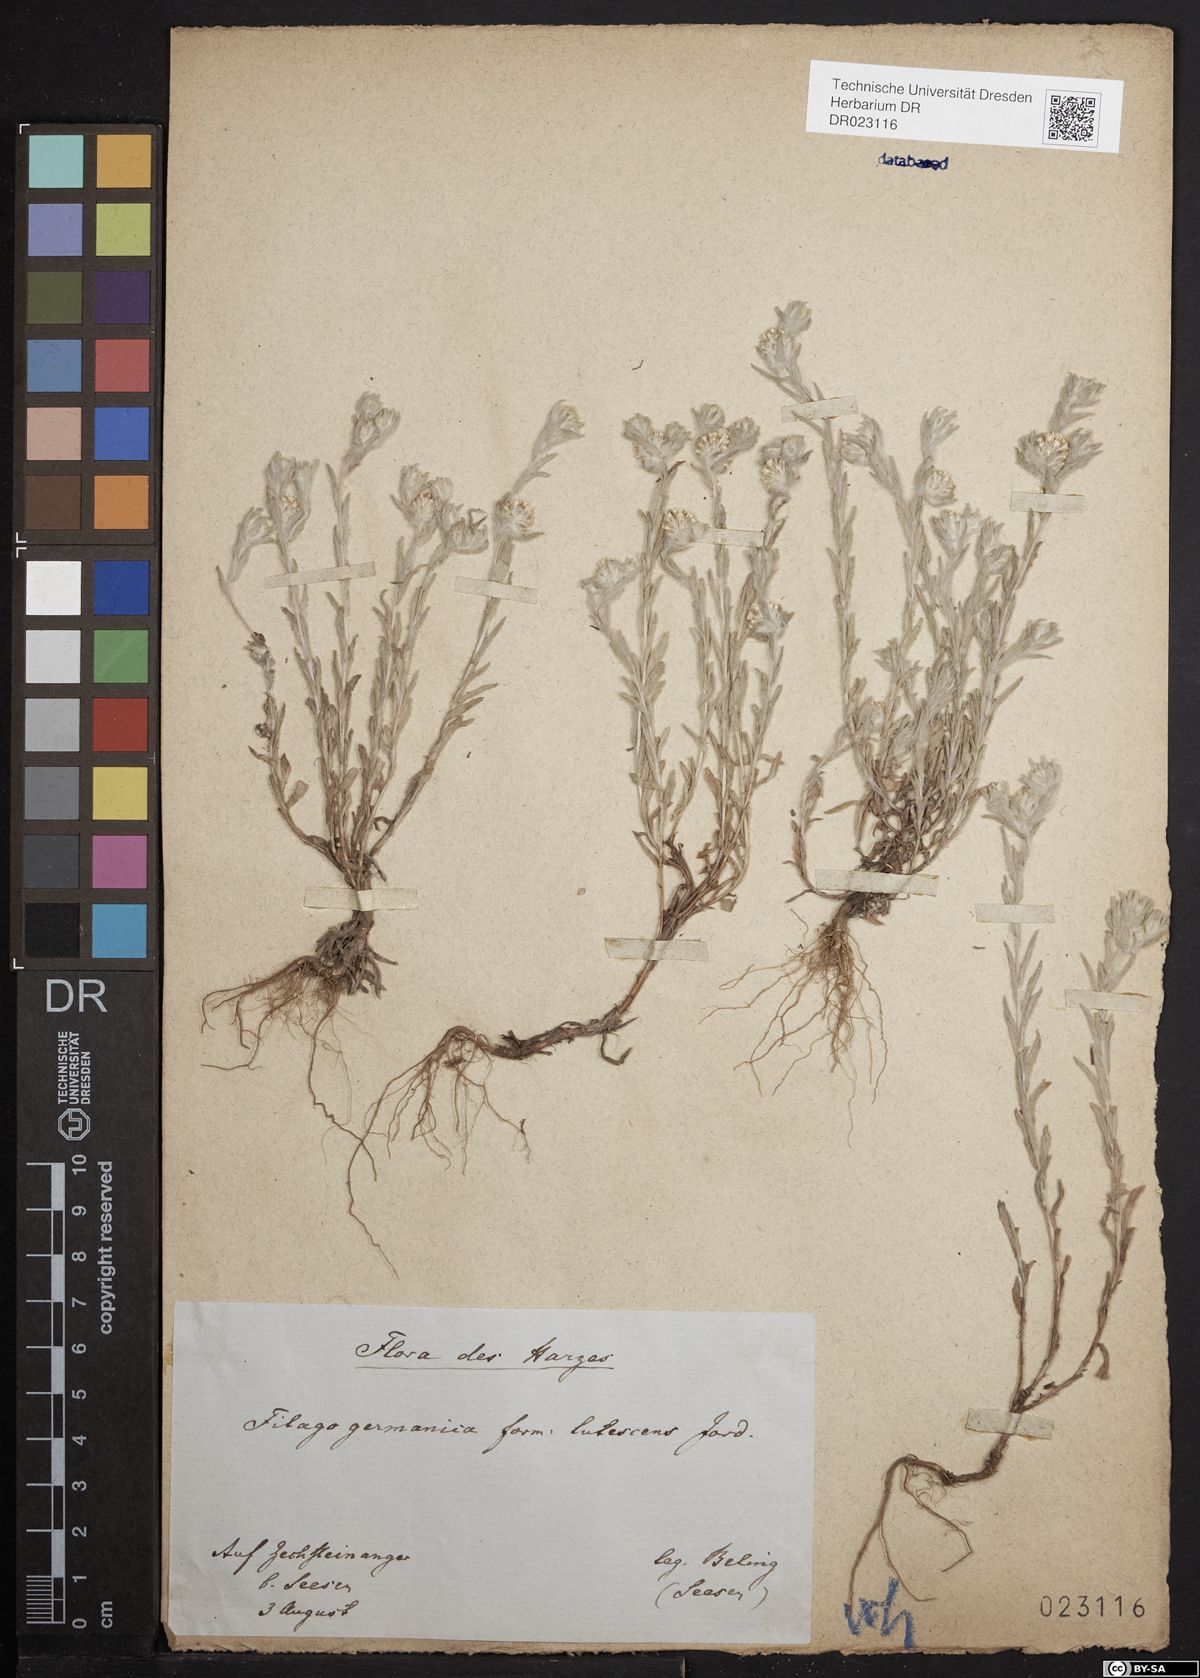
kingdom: Plantae
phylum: Tracheophyta
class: Magnoliopsida
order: Asterales
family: Asteraceae
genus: Filago
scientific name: Filago germanica
